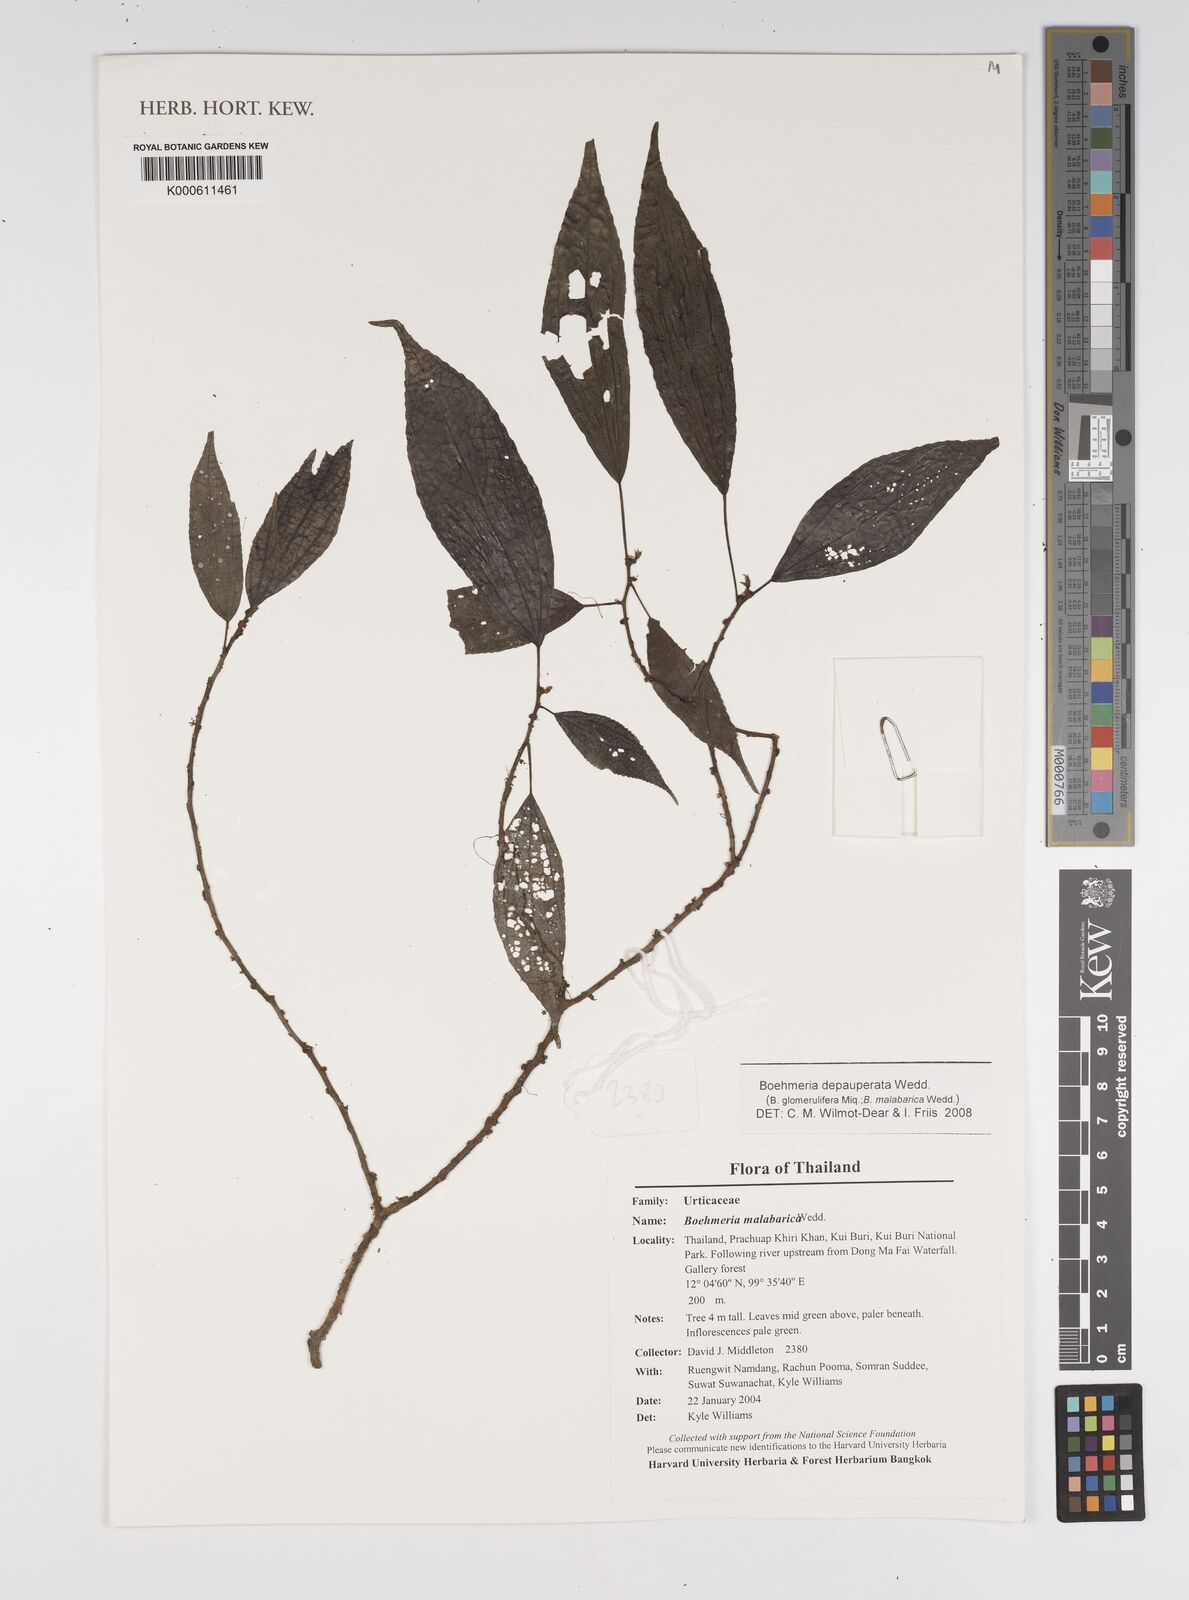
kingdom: Plantae
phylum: Tracheophyta
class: Magnoliopsida
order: Rosales
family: Urticaceae
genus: Boehmeria
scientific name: Boehmeria depauperata
